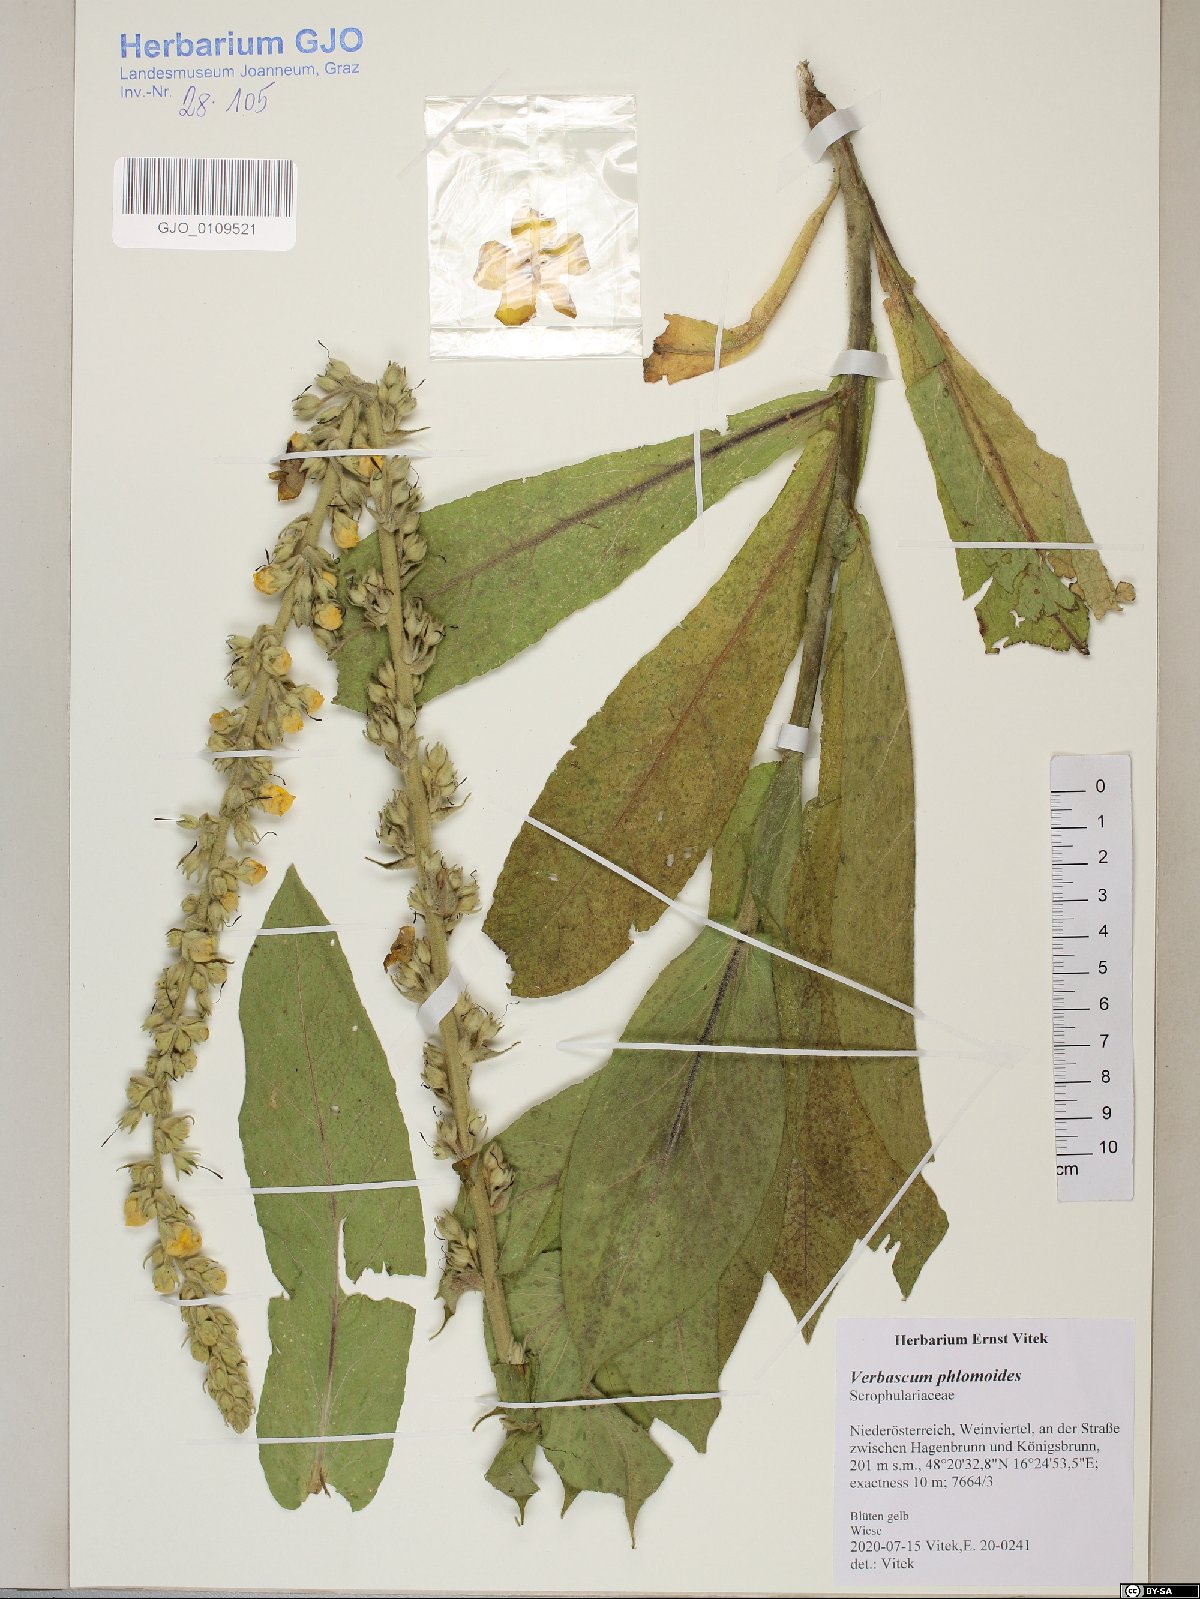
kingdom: Plantae
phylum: Tracheophyta
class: Magnoliopsida
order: Lamiales
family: Scrophulariaceae
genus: Verbascum
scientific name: Verbascum phlomoides
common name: Orange mullein
